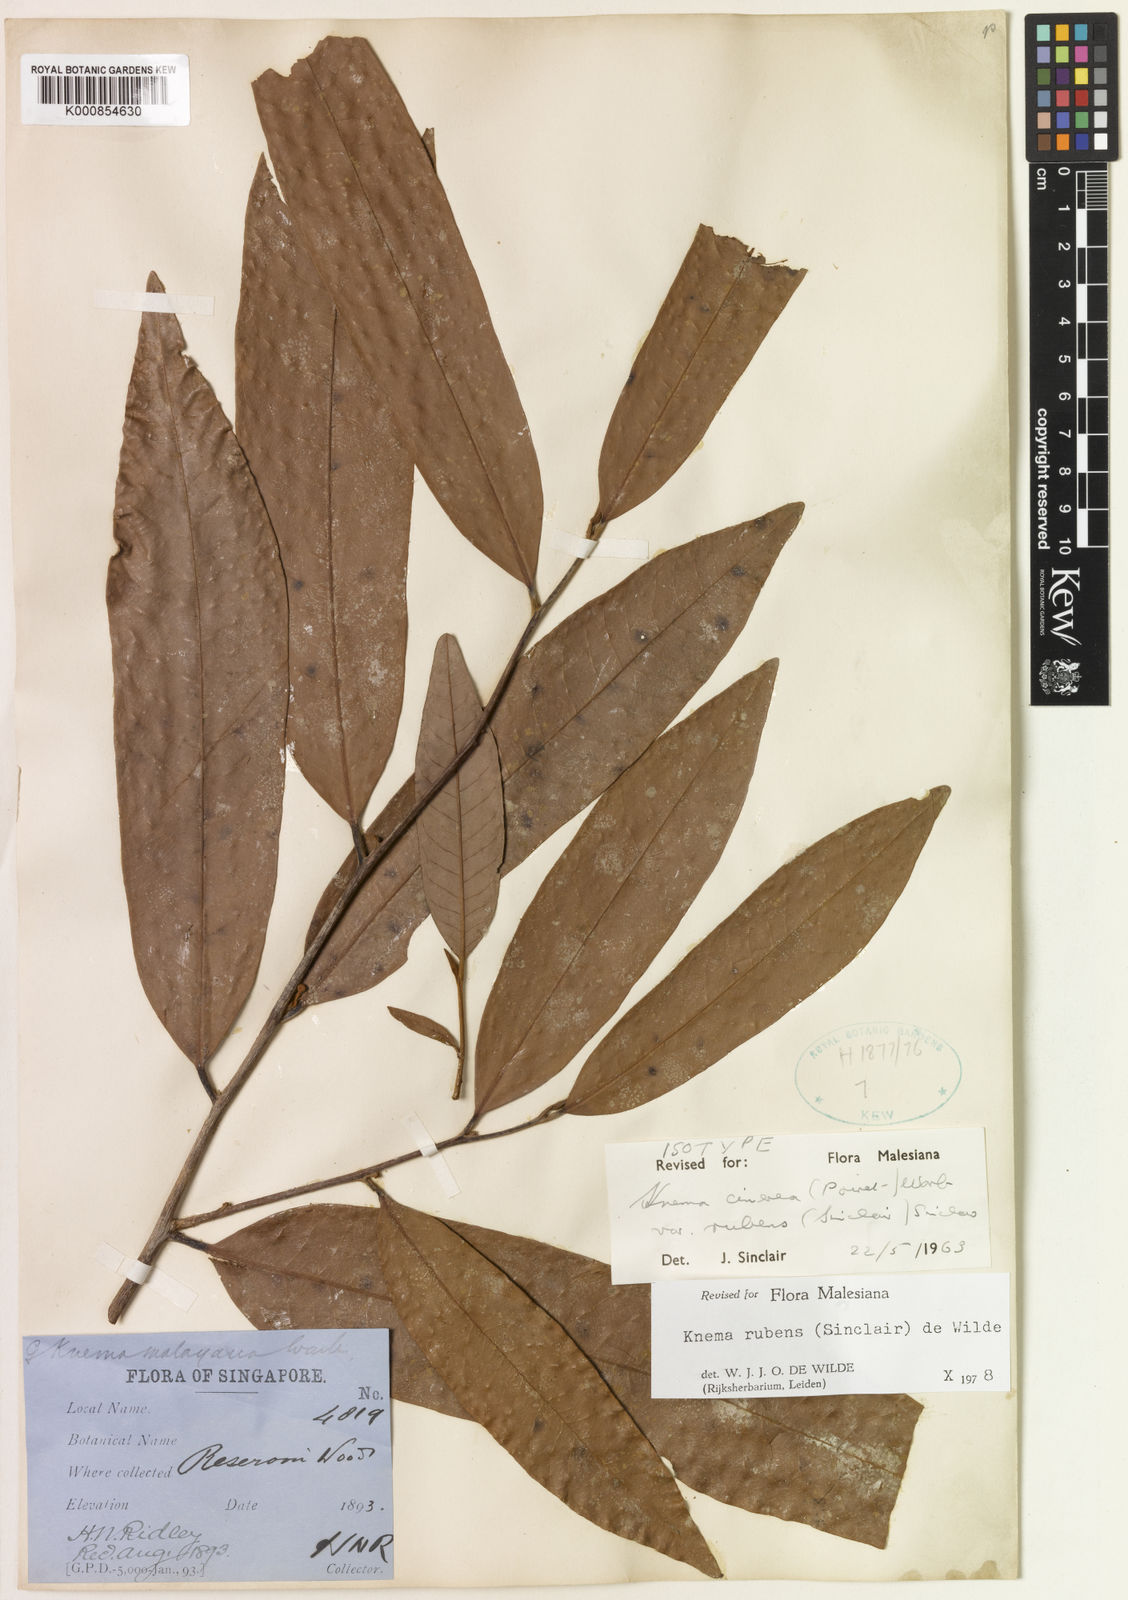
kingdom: Plantae
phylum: Tracheophyta
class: Magnoliopsida
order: Magnoliales
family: Myristicaceae
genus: Knema
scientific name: Knema rubens
